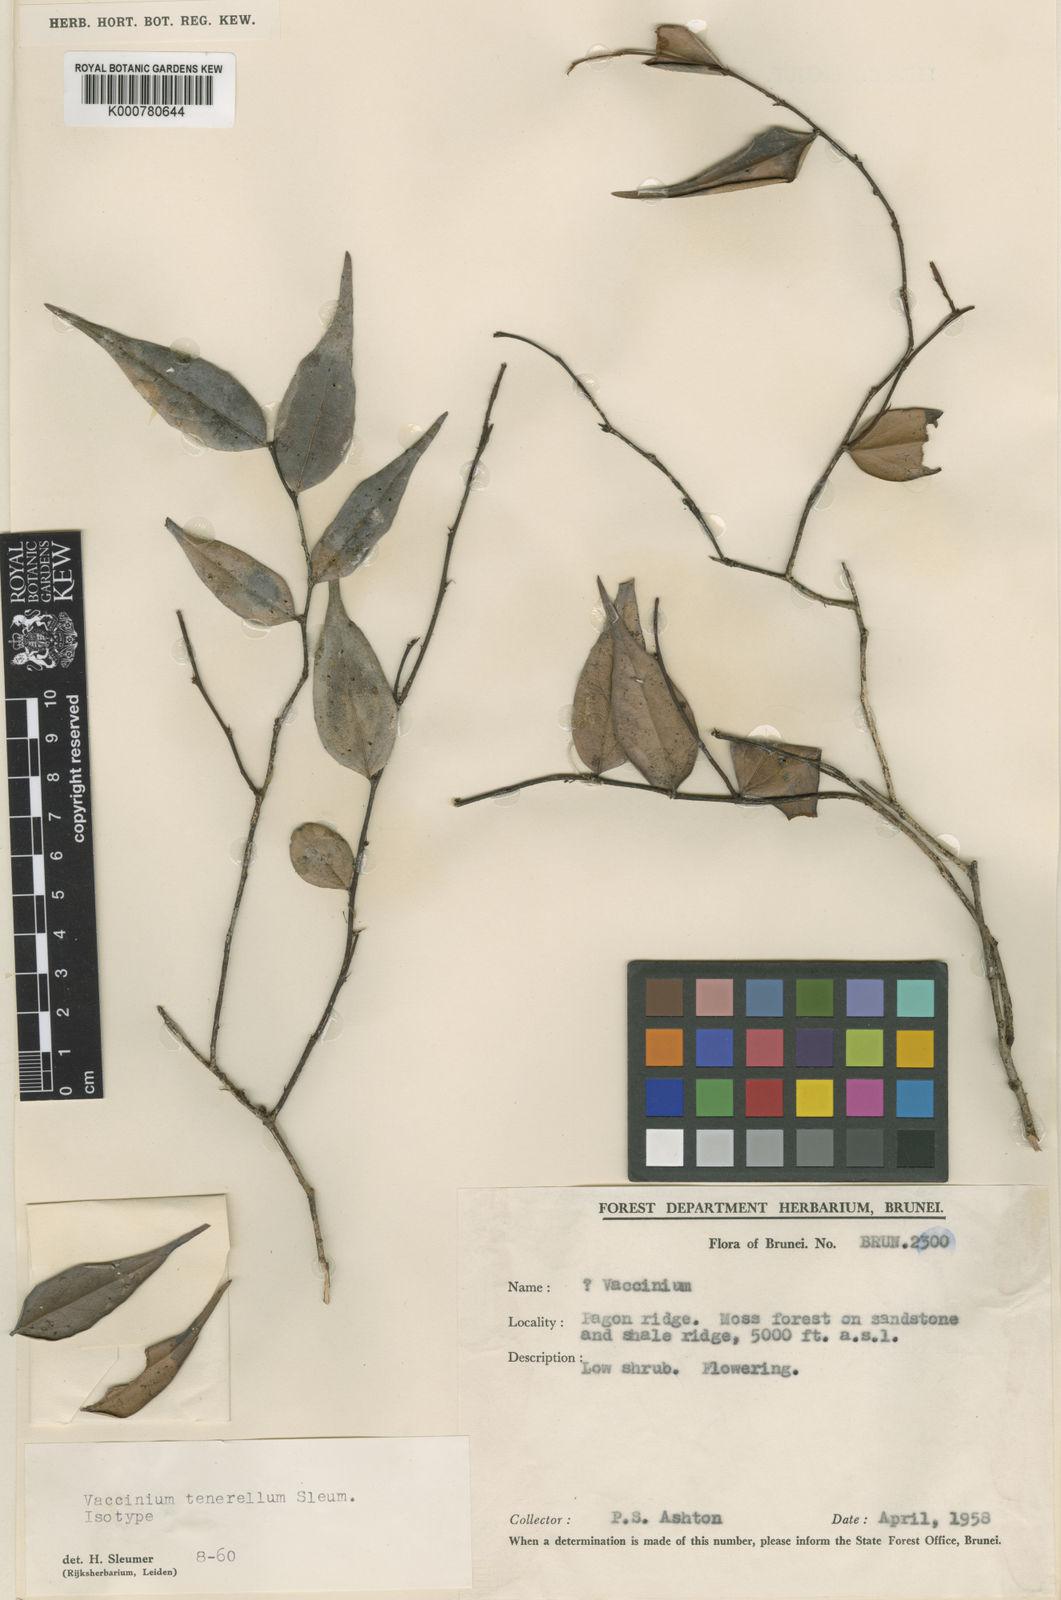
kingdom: Plantae
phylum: Tracheophyta
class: Magnoliopsida
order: Ericales
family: Ericaceae
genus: Rigiolepis
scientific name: Rigiolepis uroglossa
